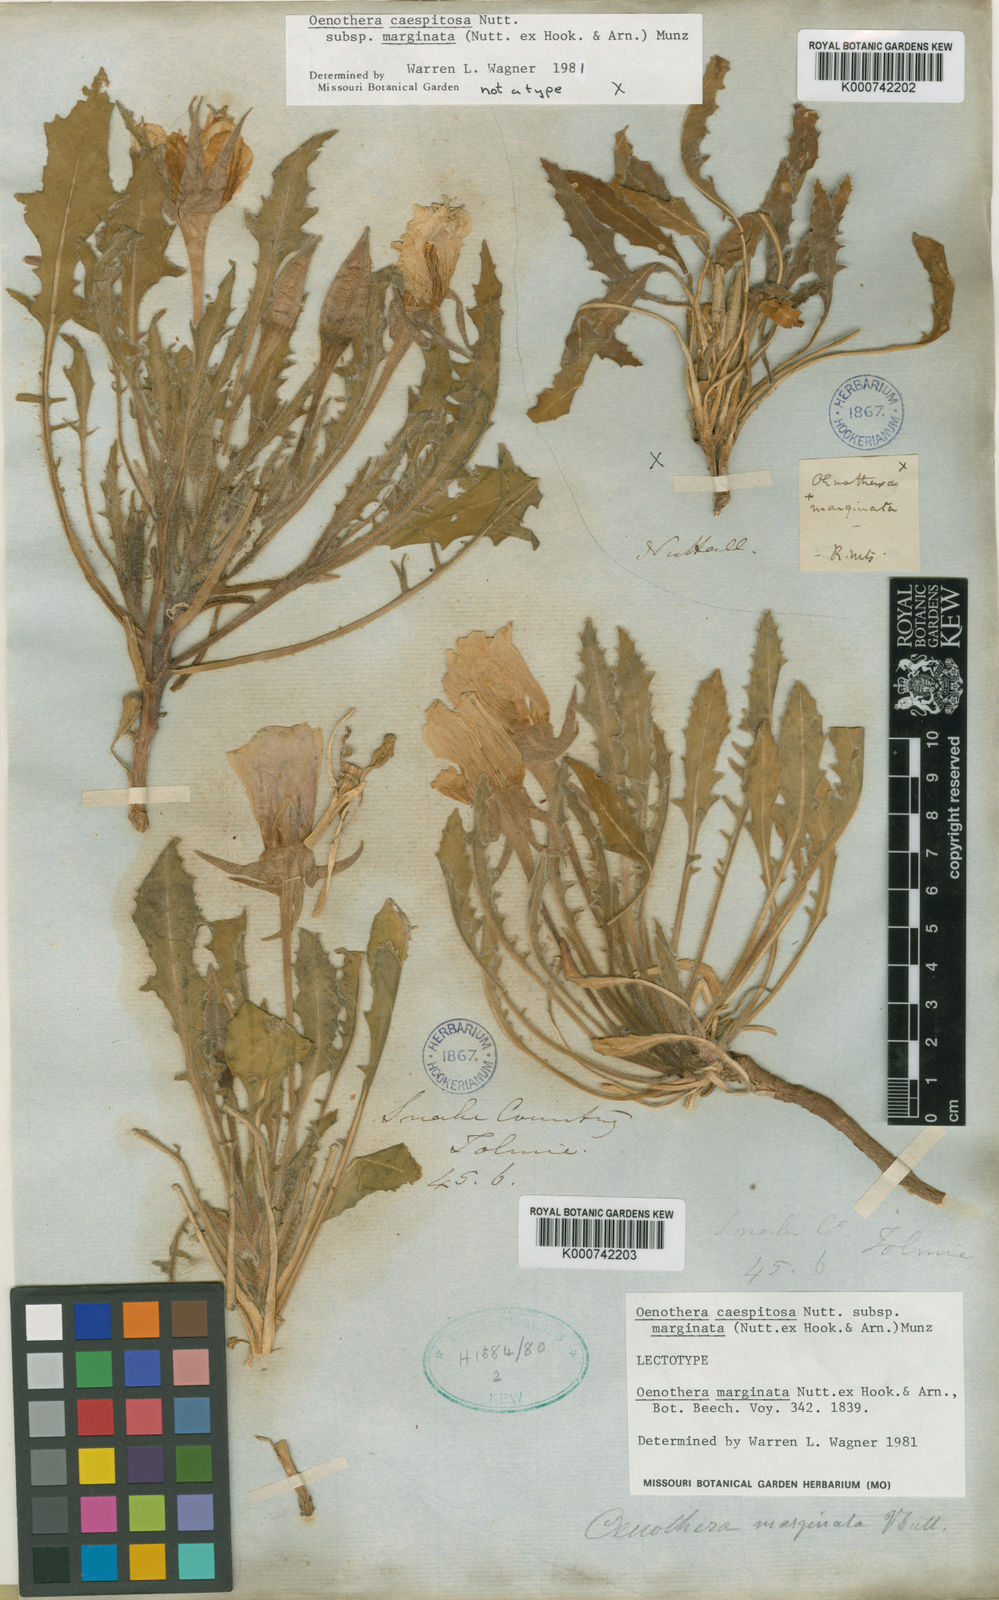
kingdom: Plantae
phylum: Tracheophyta
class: Magnoliopsida
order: Myrtales
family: Onagraceae
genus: Oenothera
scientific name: Oenothera
